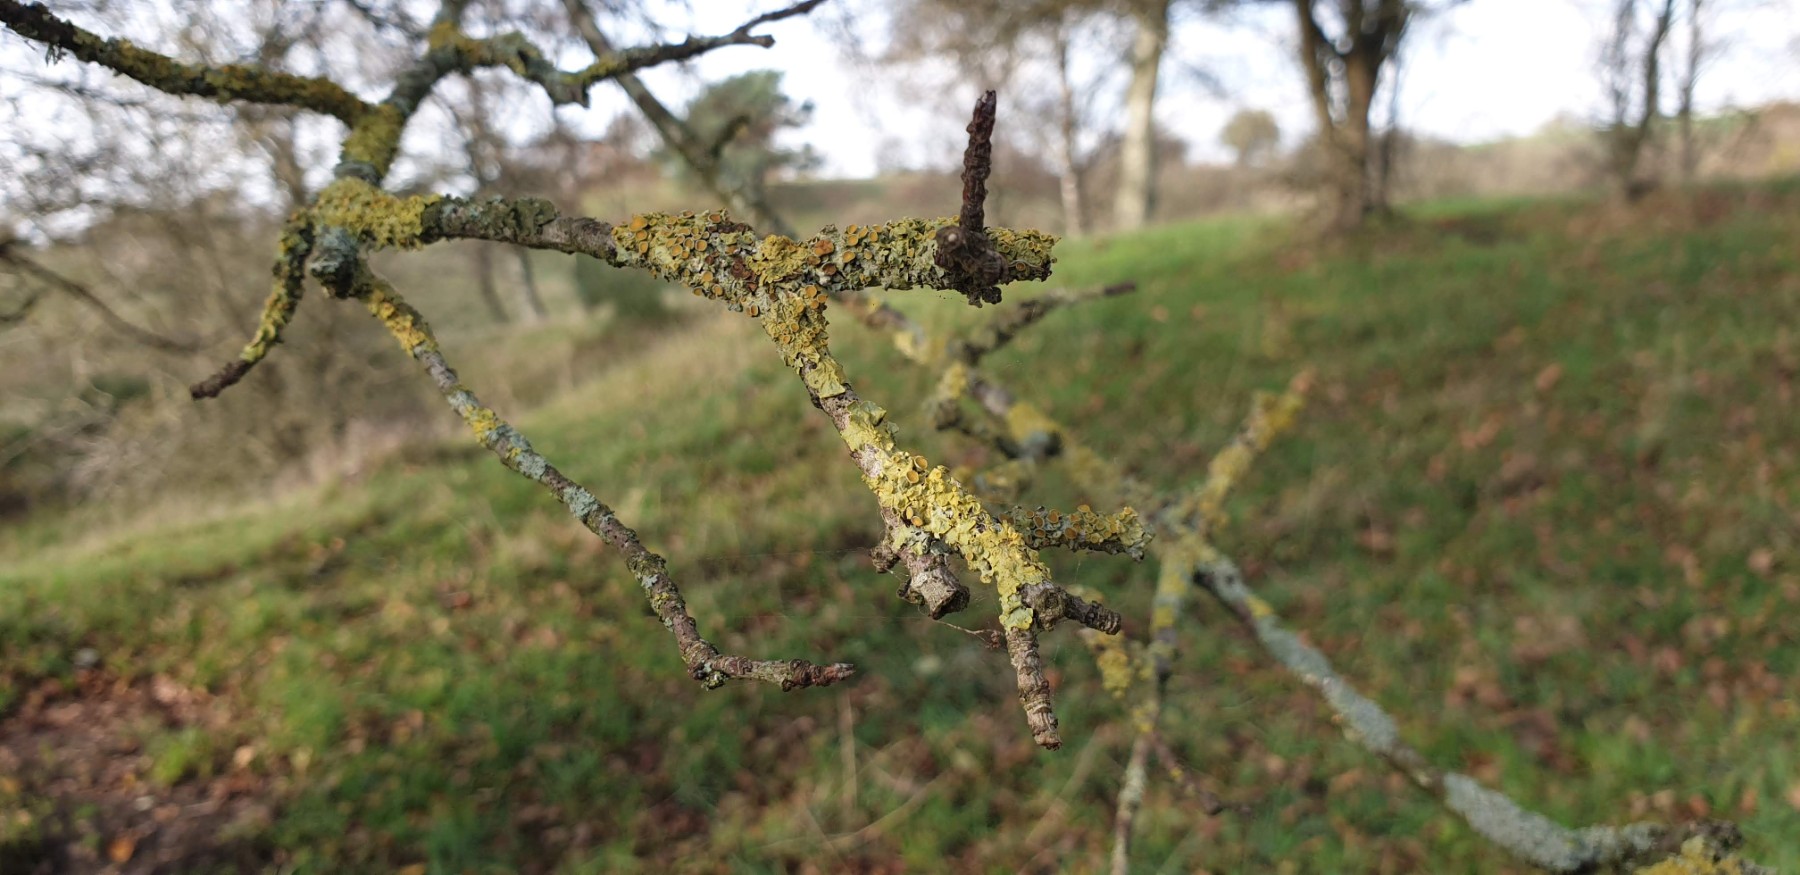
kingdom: Fungi
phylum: Ascomycota
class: Dothideomycetes
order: Mycosphaerellales
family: Teratosphaeriaceae
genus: Xanthoriicola
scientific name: Xanthoriicola physciae
